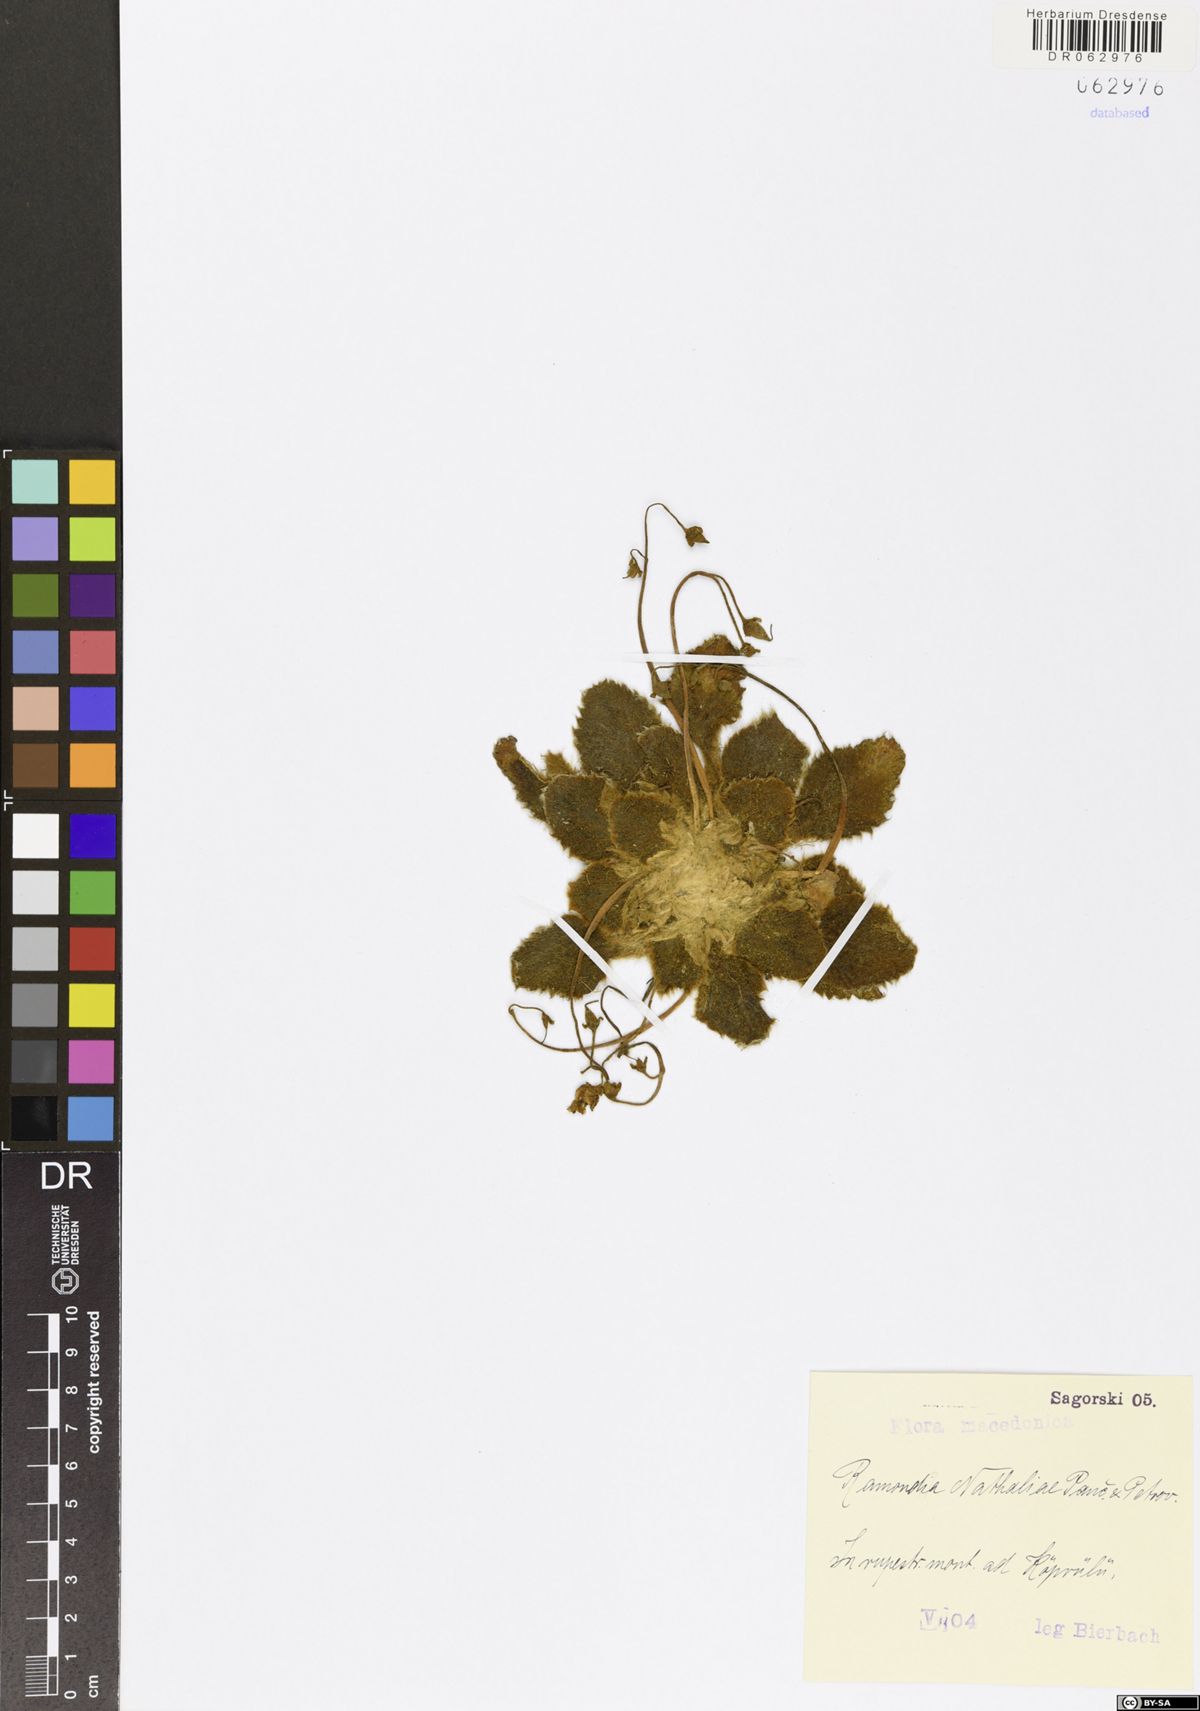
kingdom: Plantae
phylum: Tracheophyta
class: Magnoliopsida
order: Lamiales
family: Gesneriaceae
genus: Ramonda
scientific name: Ramonda nathaliae
